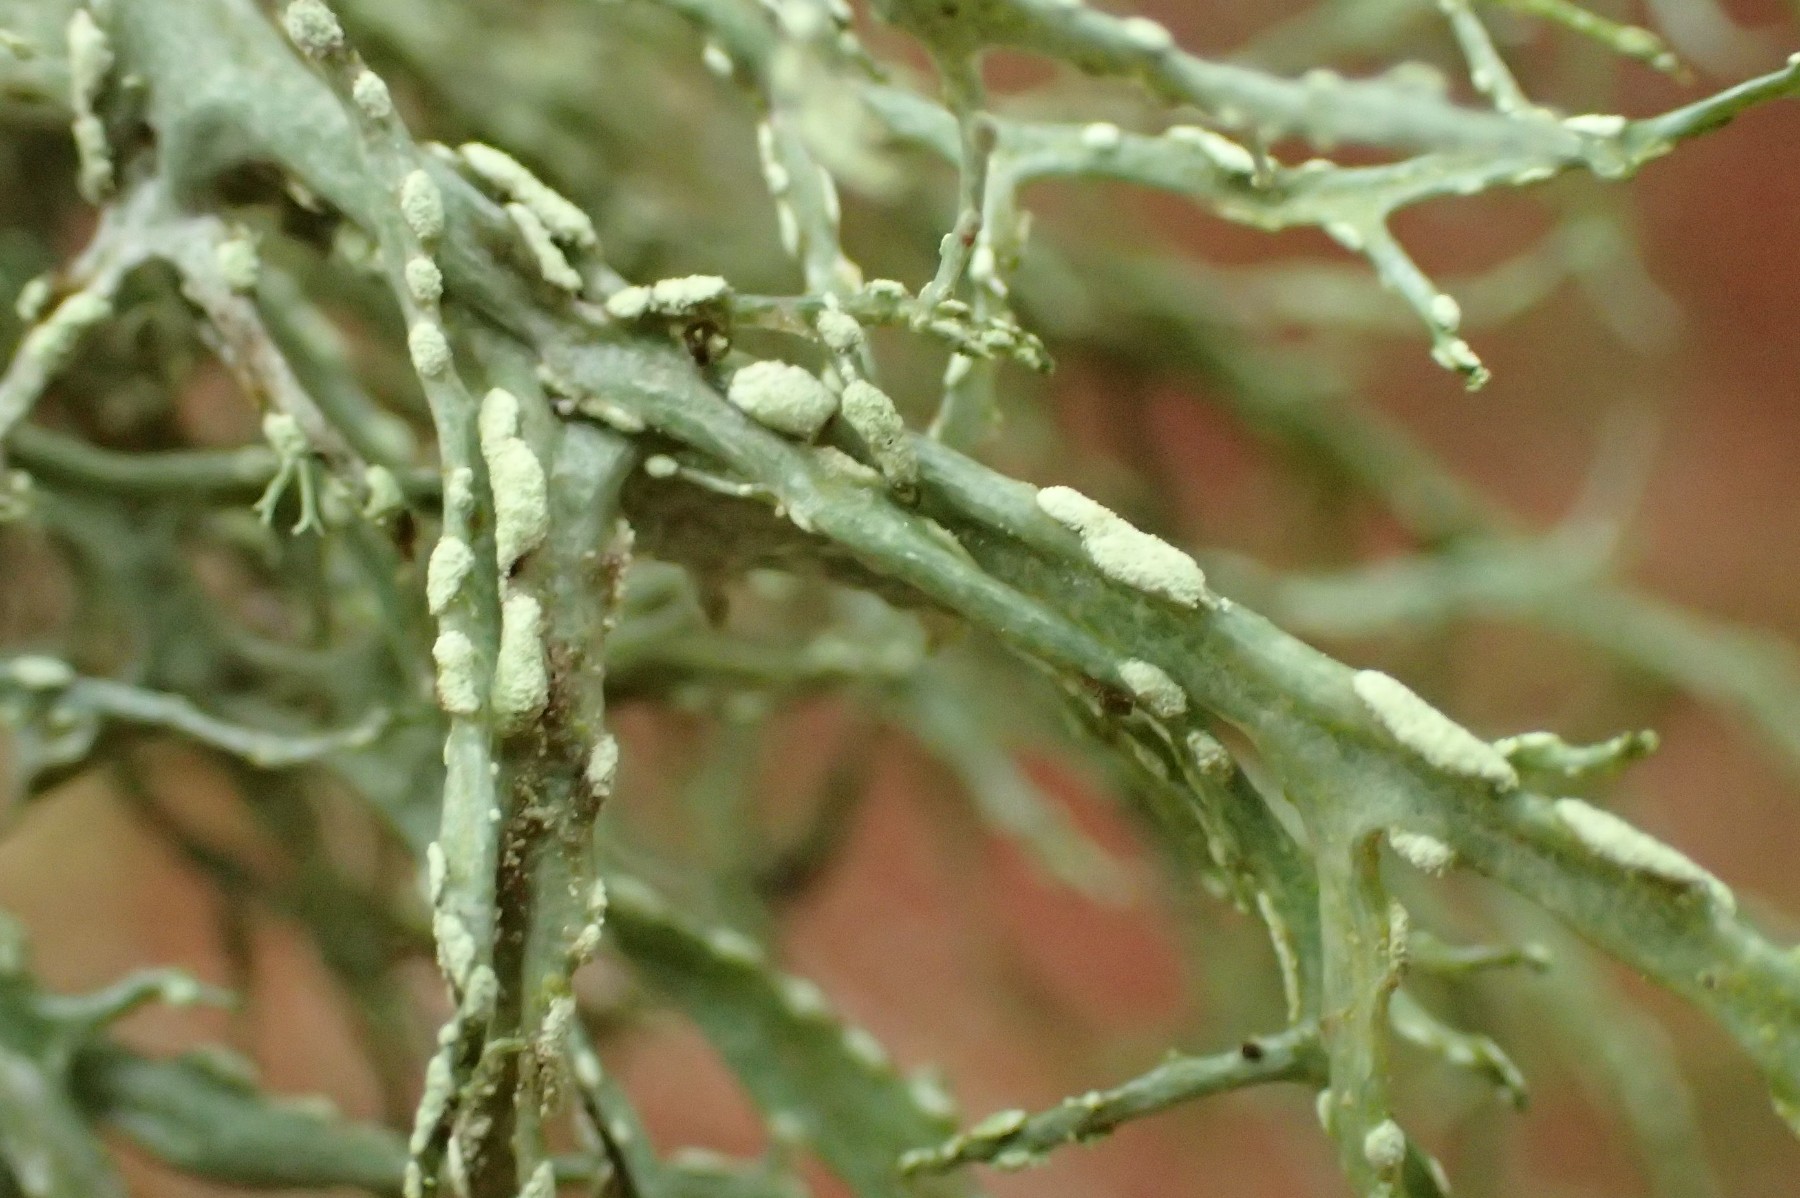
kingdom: Fungi
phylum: Ascomycota
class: Lecanoromycetes
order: Lecanorales
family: Ramalinaceae
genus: Ramalina
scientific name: Ramalina farinacea
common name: melet grenlav
